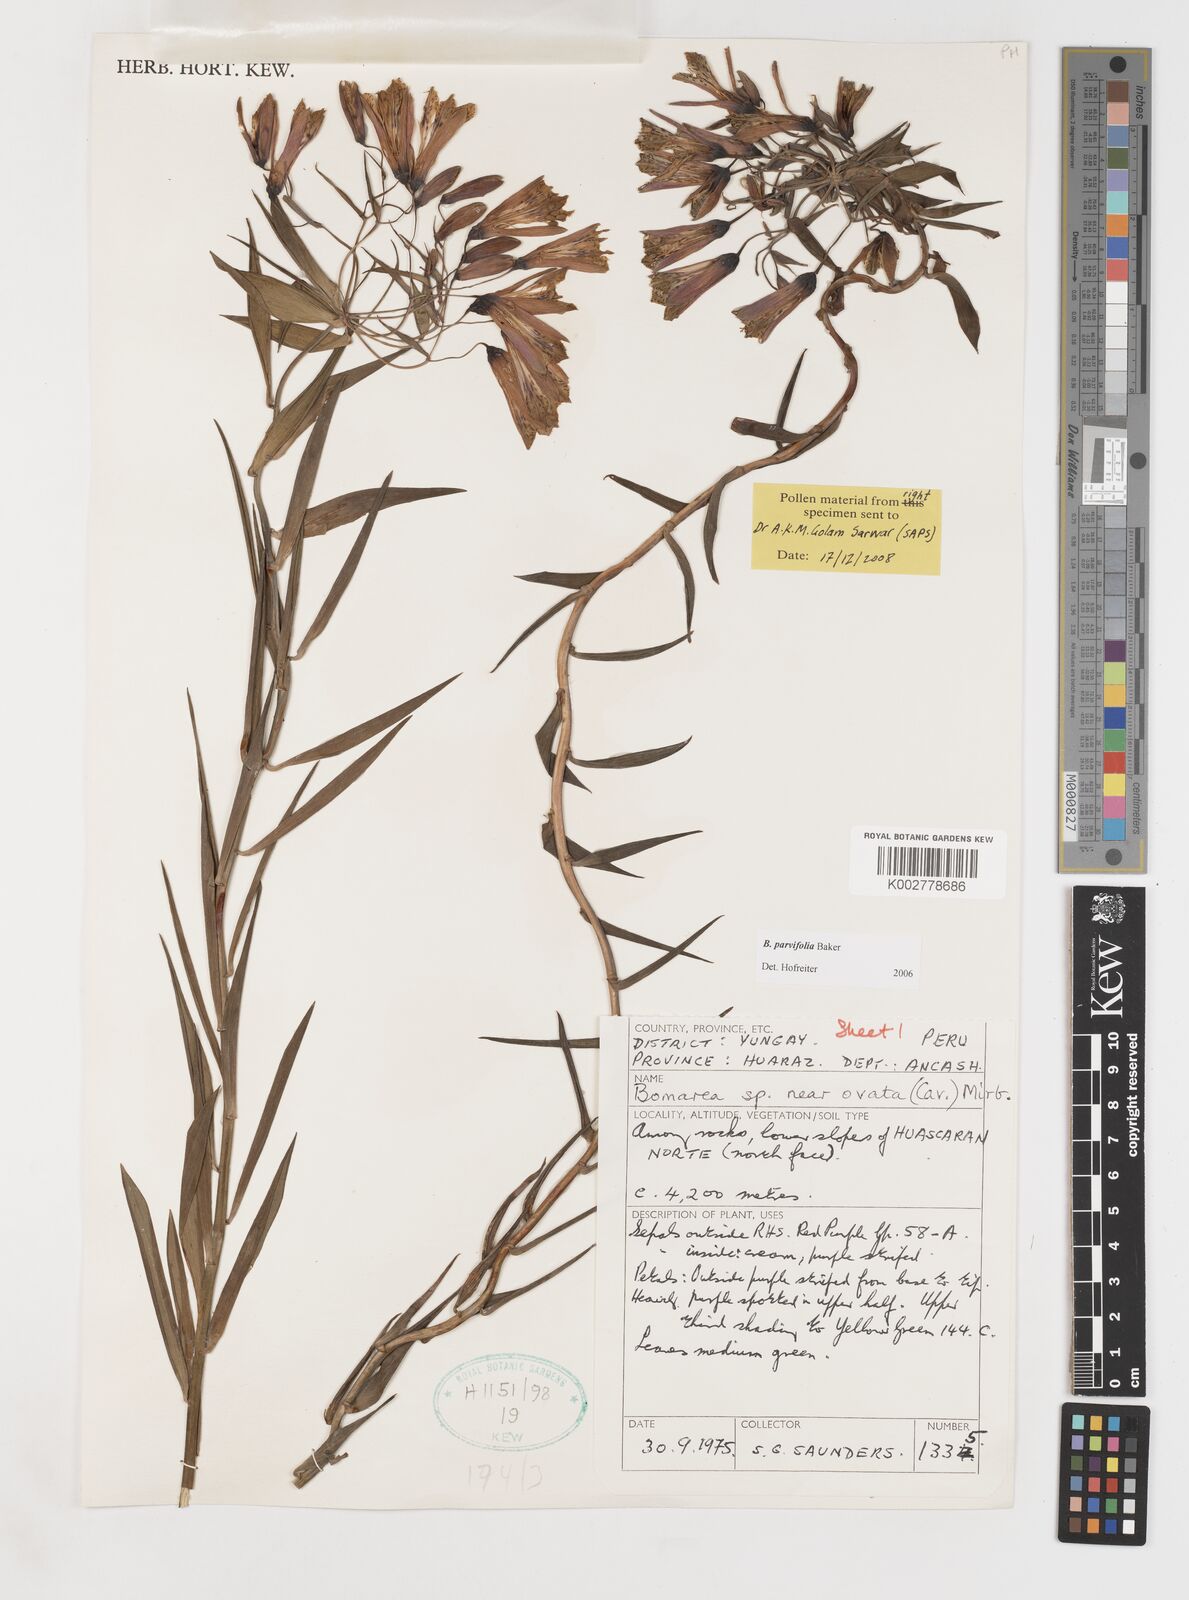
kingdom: Plantae
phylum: Tracheophyta
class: Liliopsida
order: Liliales
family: Alstroemeriaceae
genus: Bomarea
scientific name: Bomarea parvifolia
